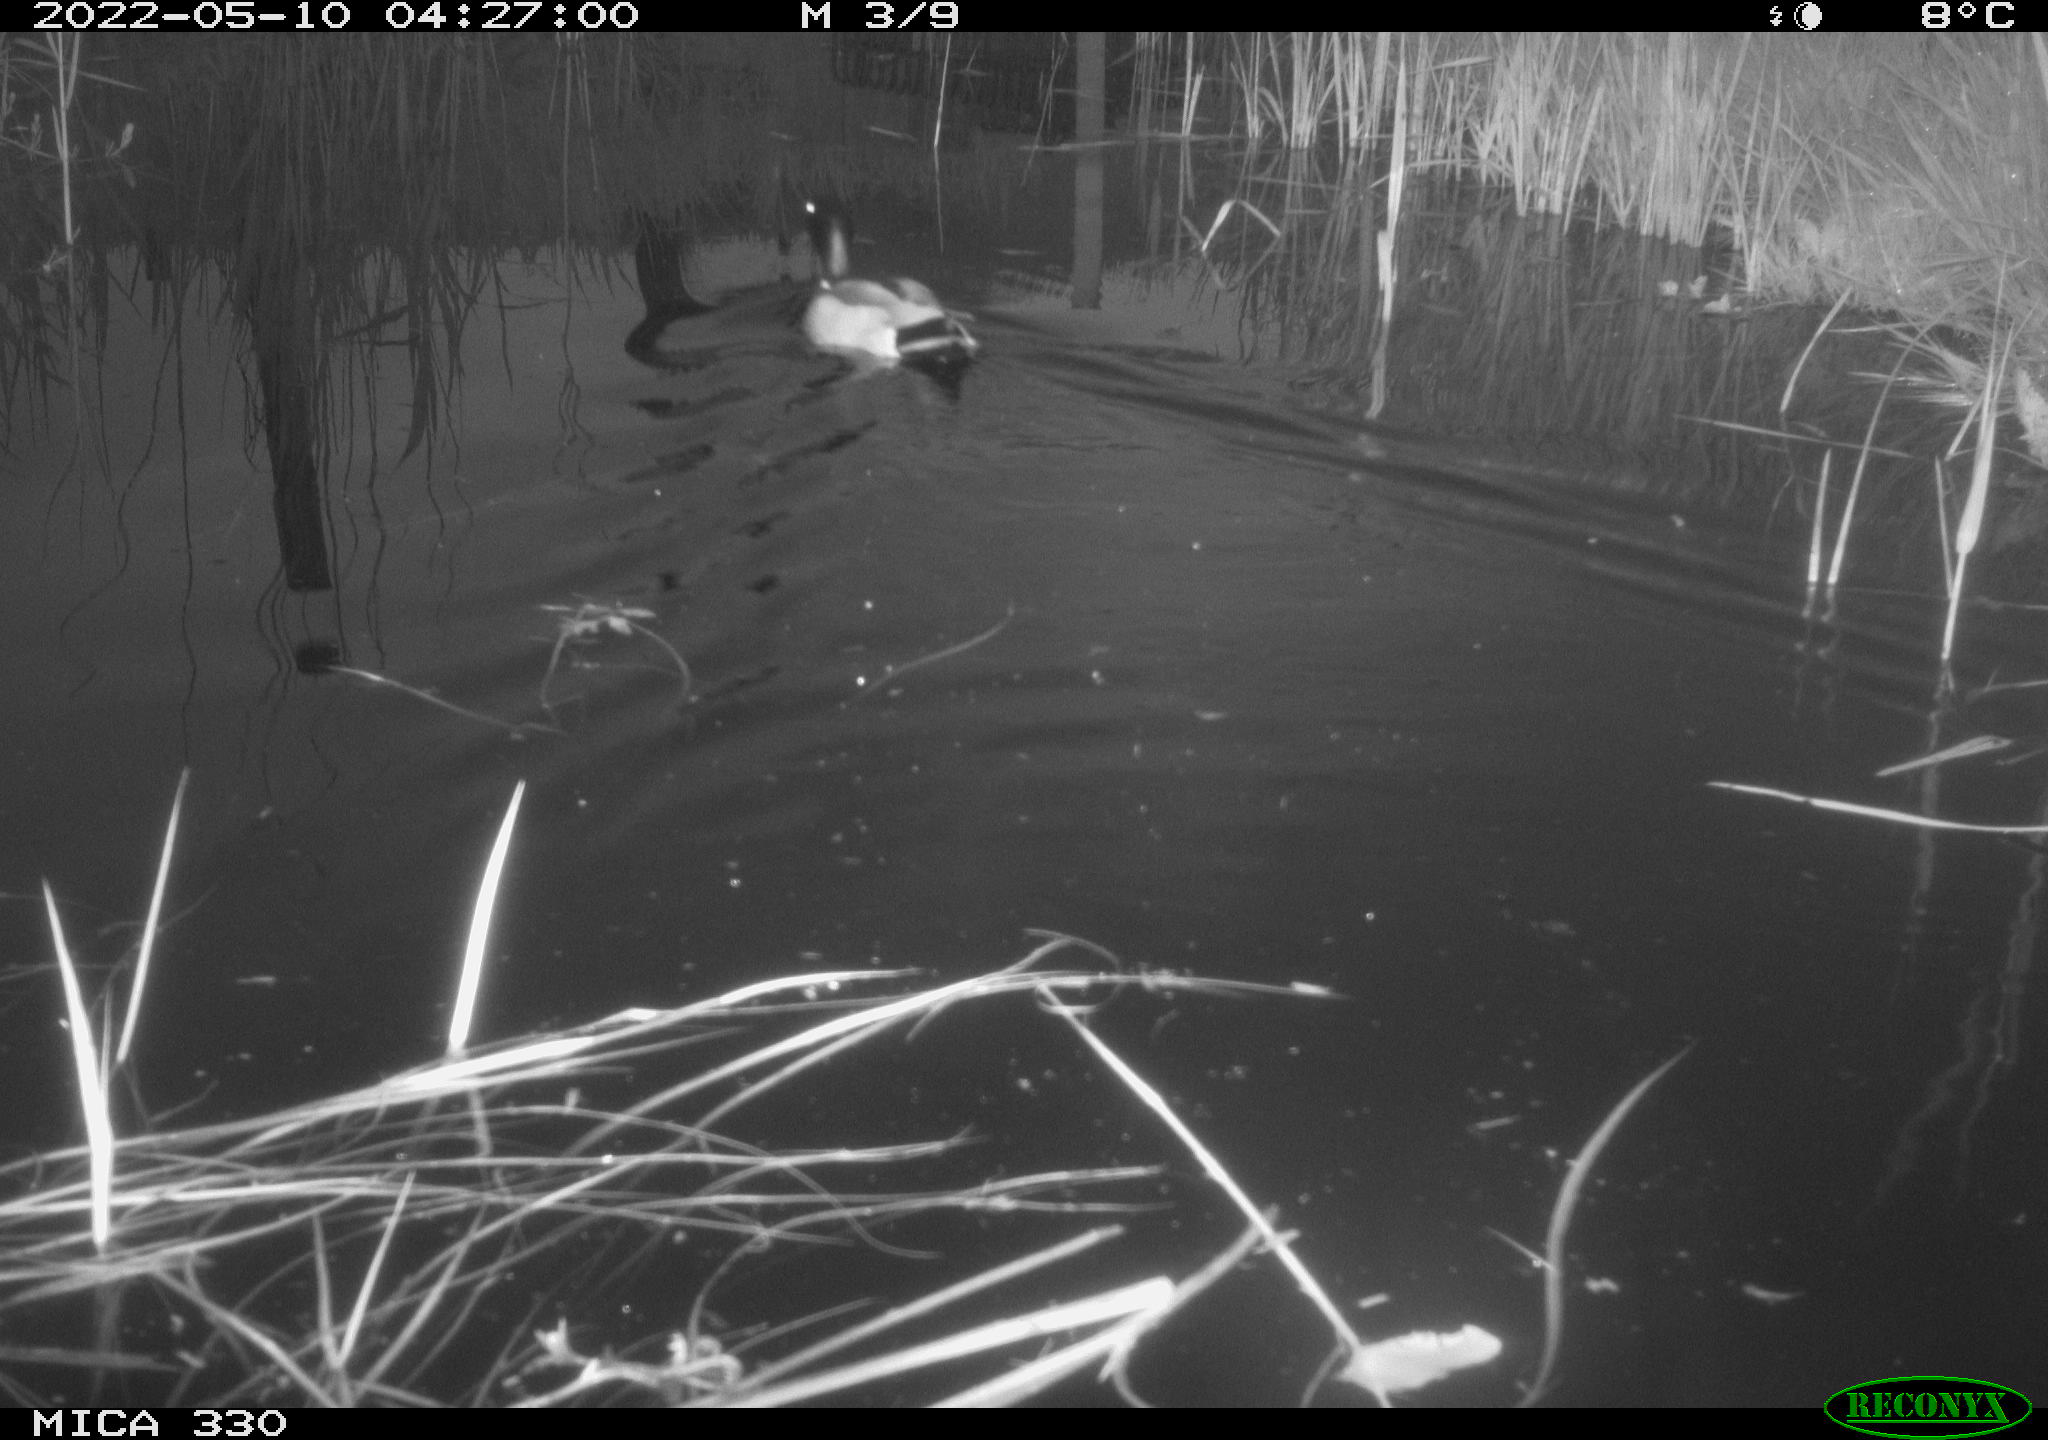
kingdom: Animalia
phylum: Chordata
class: Aves
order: Anseriformes
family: Anatidae
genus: Anas
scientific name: Anas platyrhynchos
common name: Mallard
